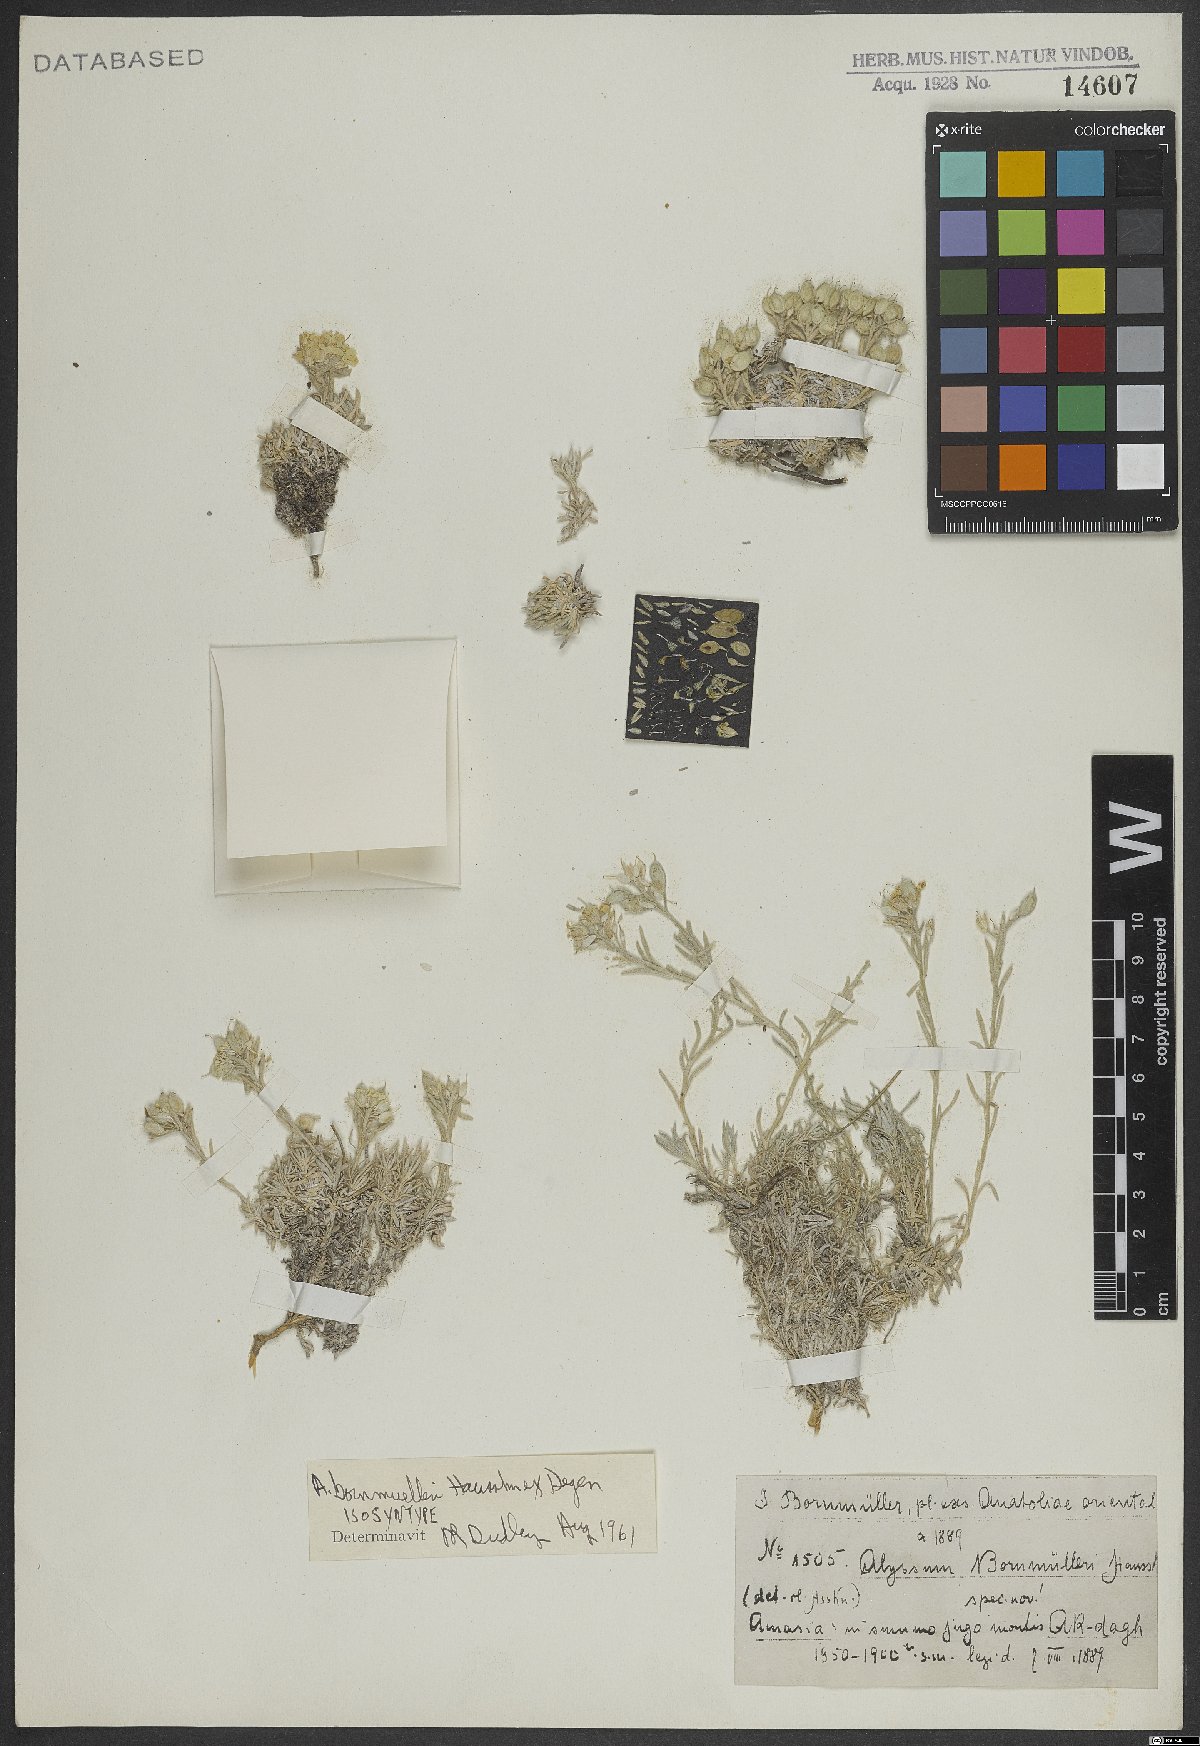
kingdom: Plantae
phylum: Tracheophyta
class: Magnoliopsida
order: Brassicales
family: Brassicaceae
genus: Alyssum
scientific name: Alyssum bornmuelleri
